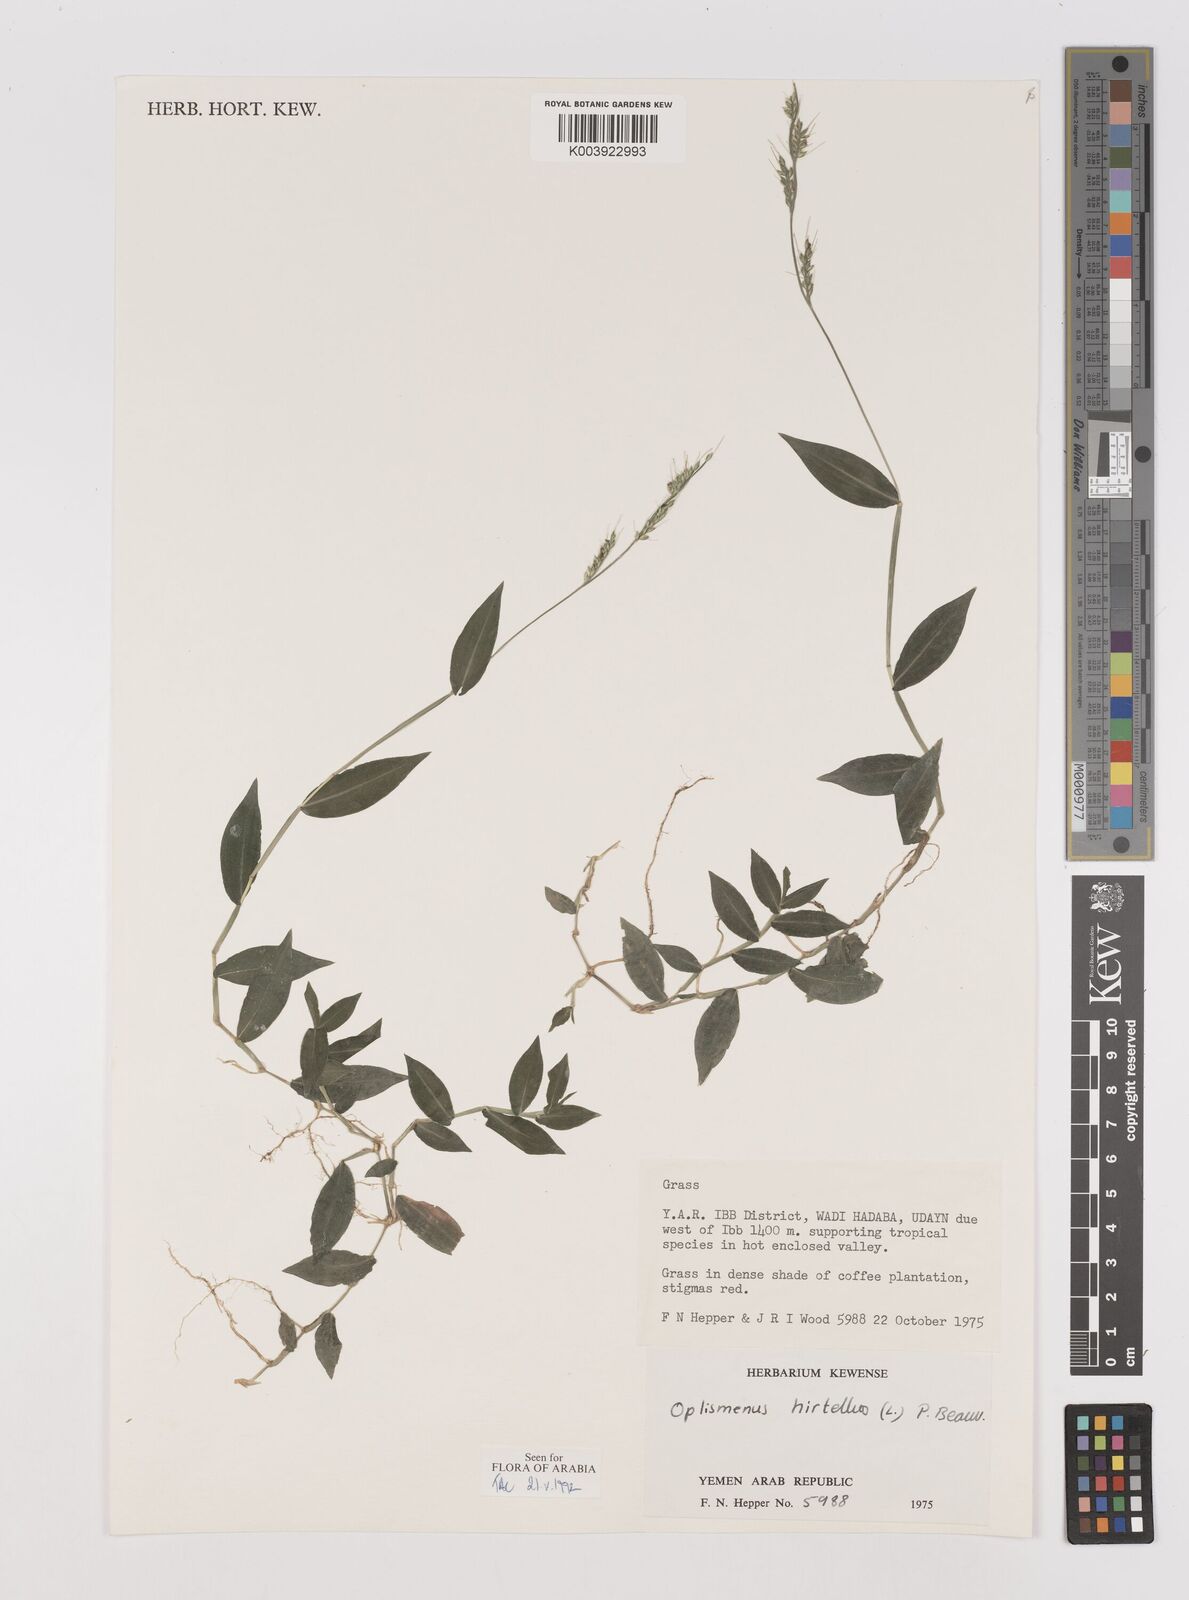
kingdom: Plantae
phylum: Tracheophyta
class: Liliopsida
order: Poales
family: Poaceae
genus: Oplismenus
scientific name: Oplismenus hirtellus
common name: Basketgrass
